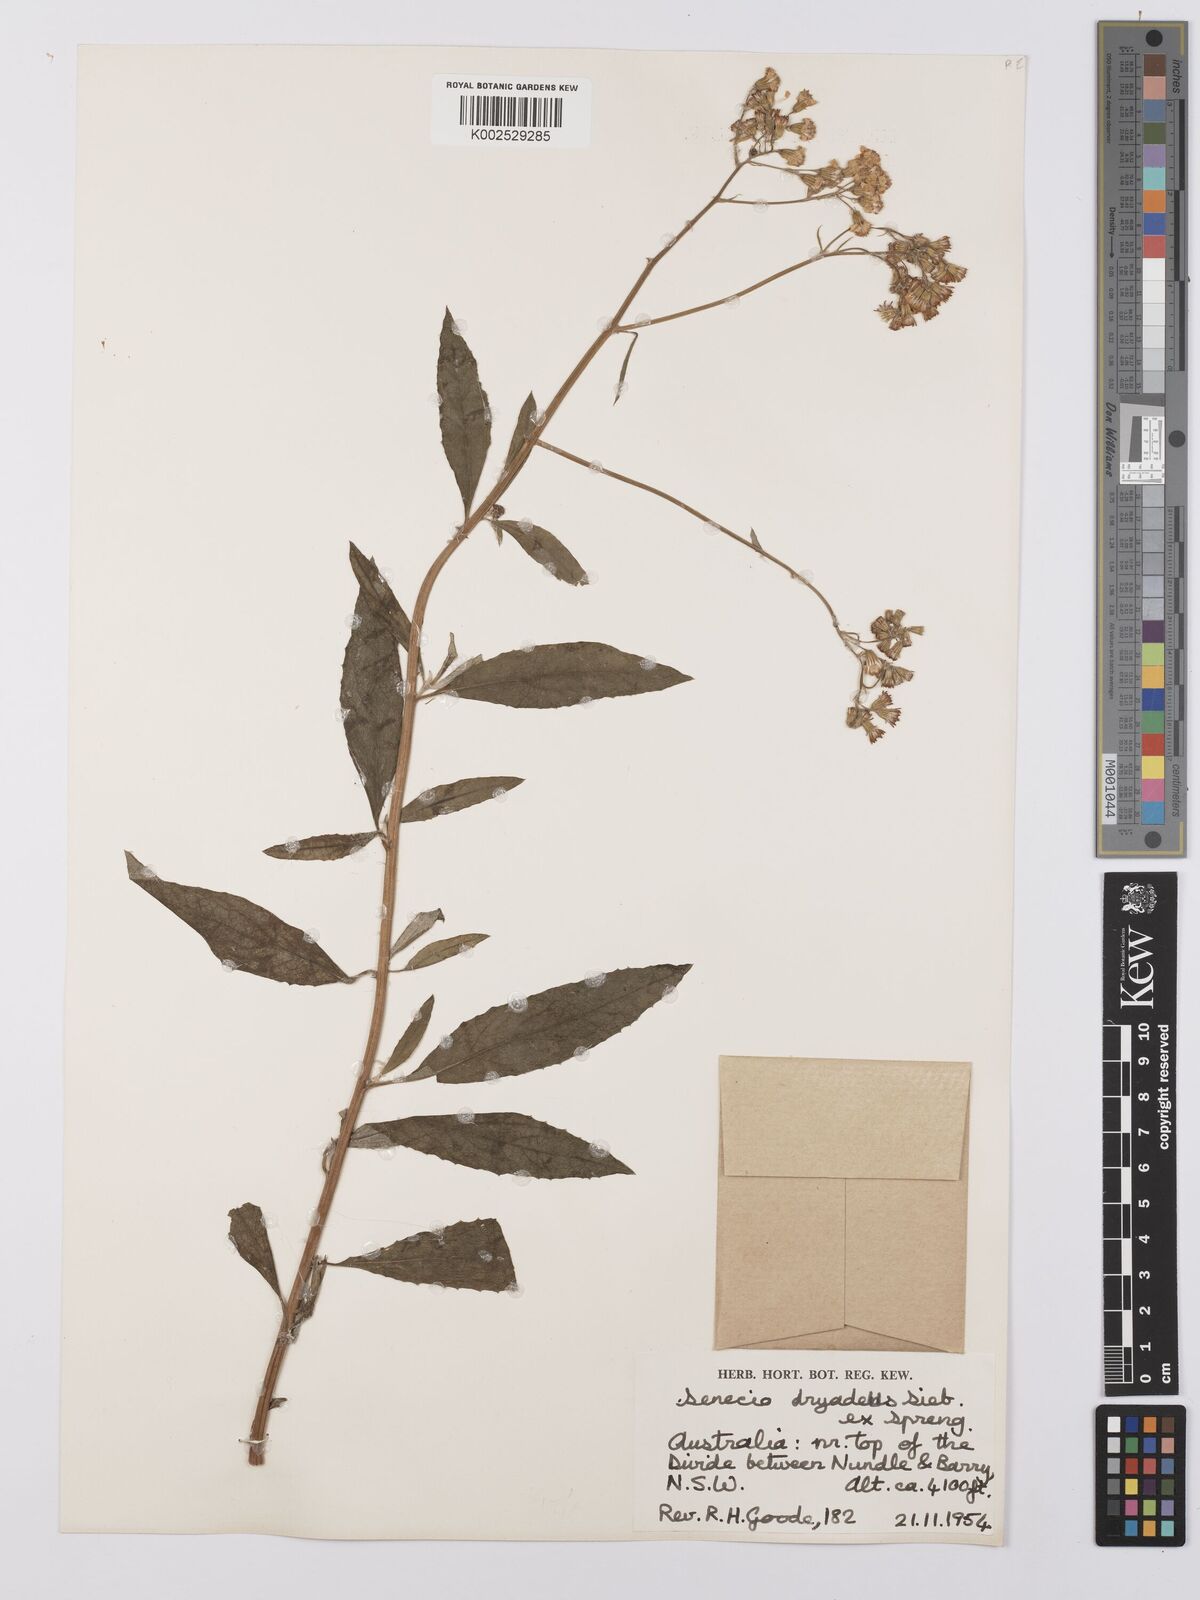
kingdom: Plantae
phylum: Tracheophyta
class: Magnoliopsida
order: Asterales
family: Asteraceae
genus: Senecio
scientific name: Senecio
